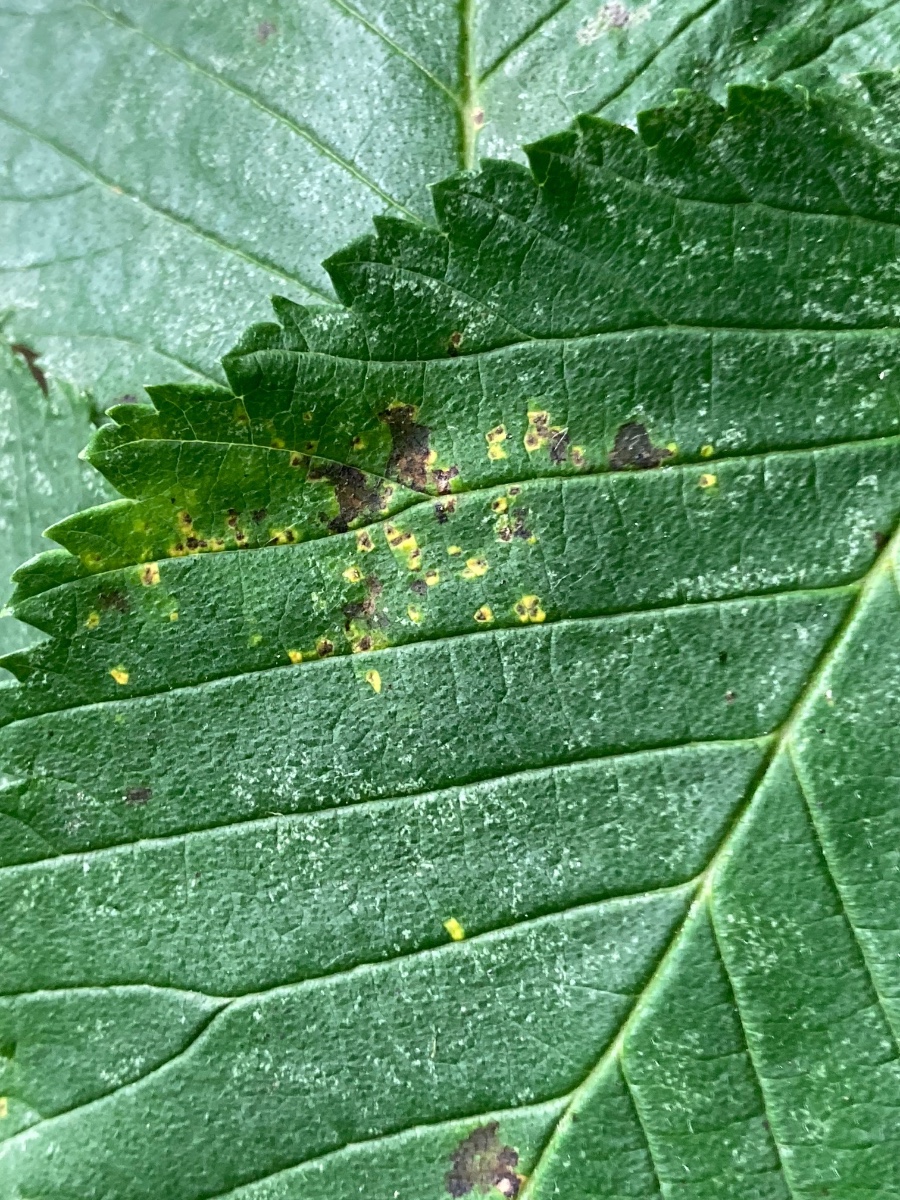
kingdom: Fungi
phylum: Ascomycota
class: Dothideomycetes
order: Mycosphaerellales
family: Mycosphaerellaceae
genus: Mycosphaerella
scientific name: Mycosphaerella ulmi
